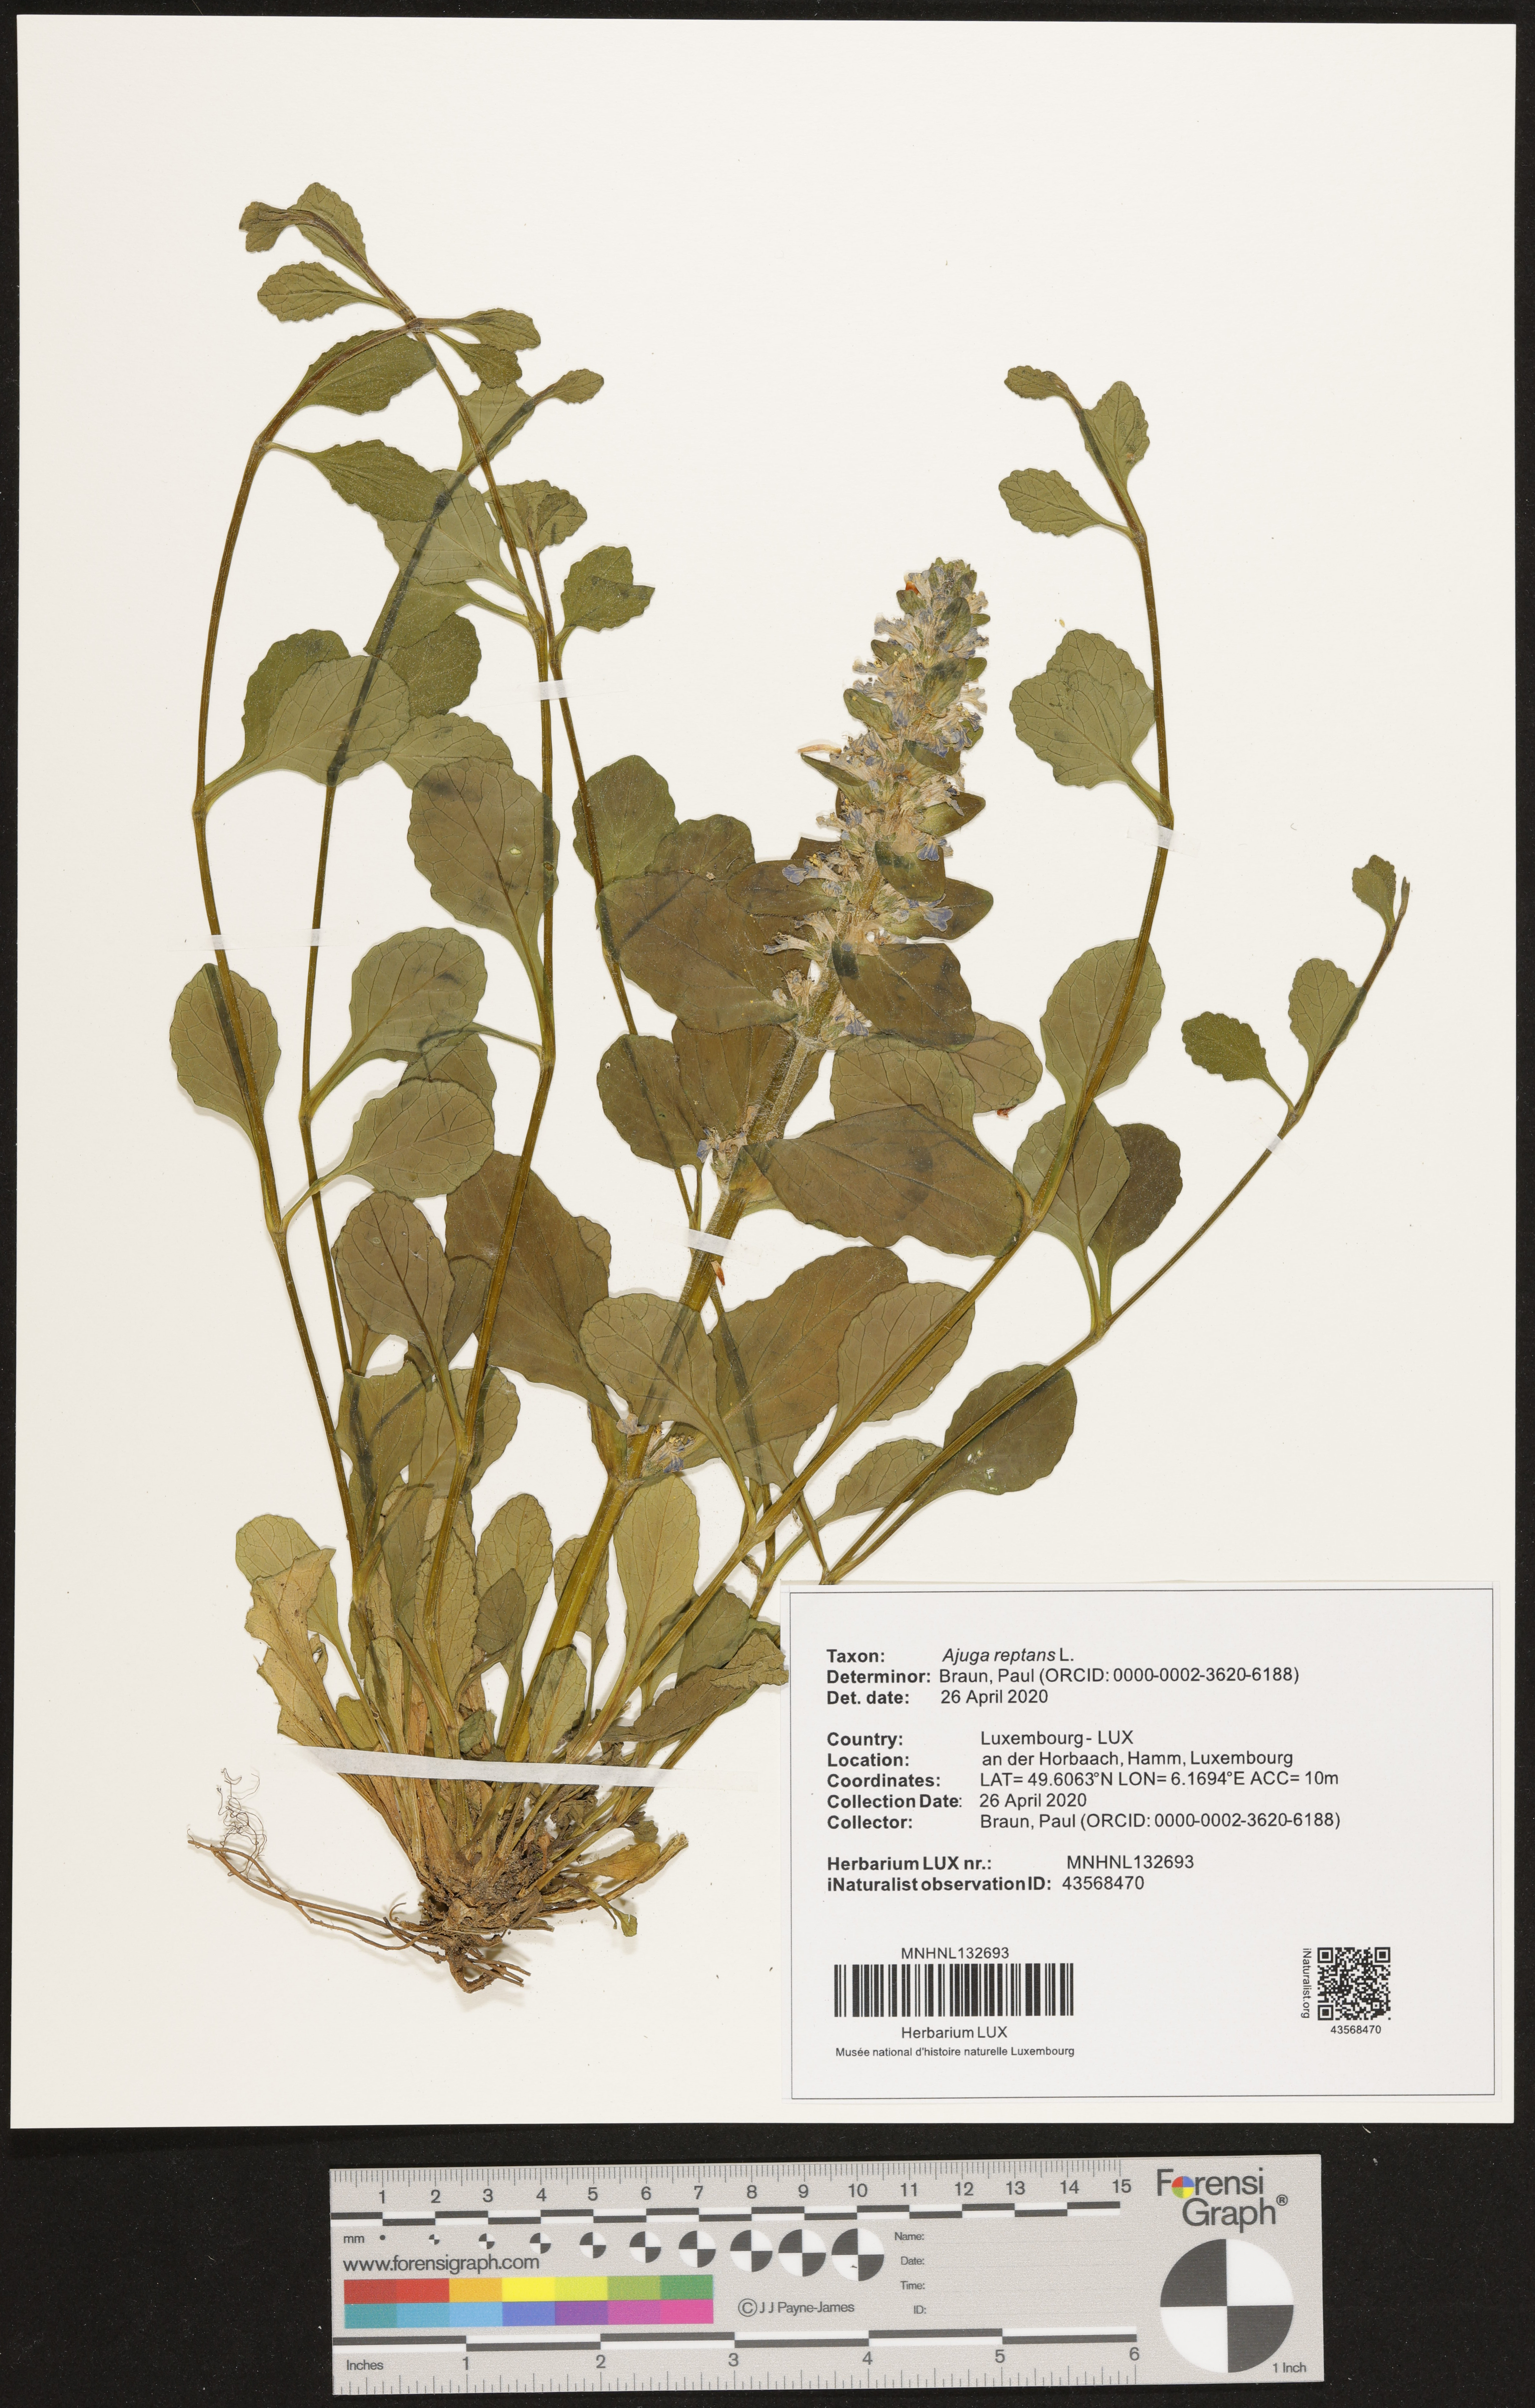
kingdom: Plantae
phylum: Tracheophyta
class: Magnoliopsida
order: Lamiales
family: Lamiaceae
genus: Ajuga
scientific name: Ajuga reptans
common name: Bugle
